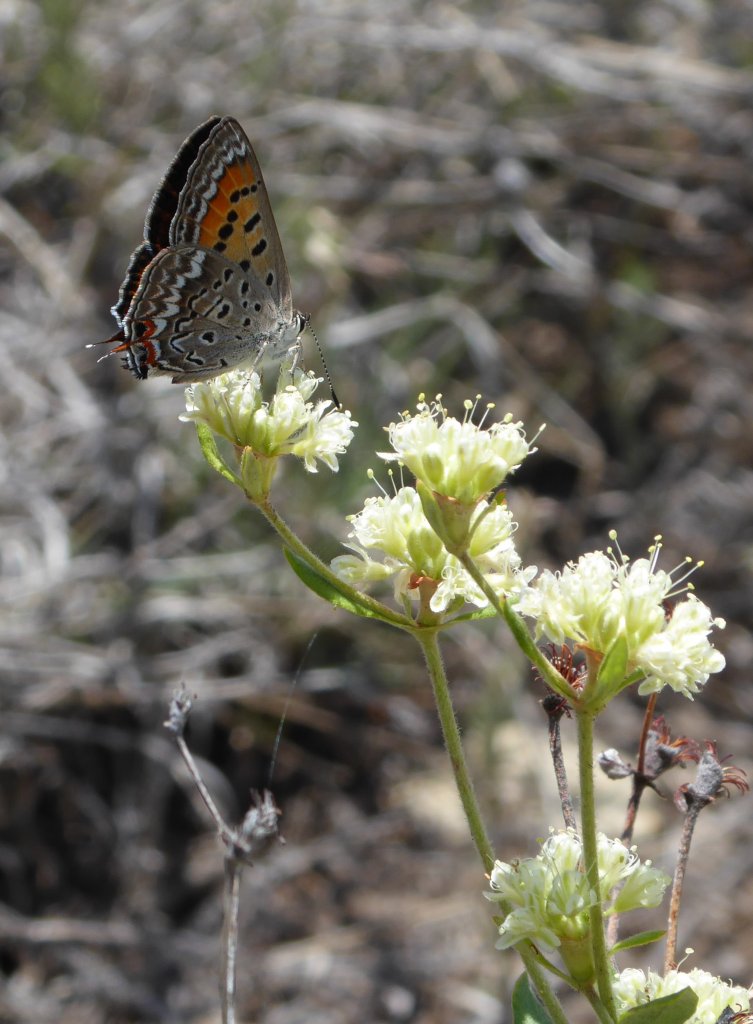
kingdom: Animalia
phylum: Arthropoda
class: Insecta
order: Lepidoptera
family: Sesiidae
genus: Sesia
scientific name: Sesia Lycaena arota
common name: Tailed Copper
